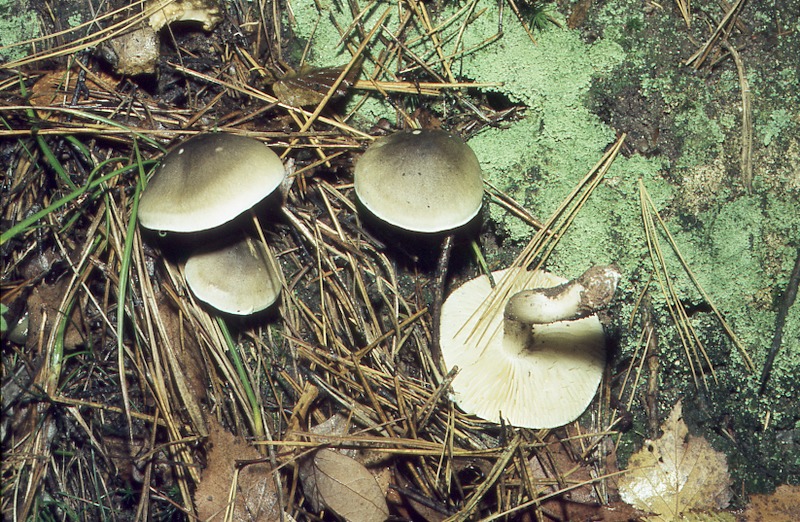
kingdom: Fungi
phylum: Basidiomycota
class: Agaricomycetes
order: Agaricales
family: Tricholomataceae
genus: Tricholoma
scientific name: Tricholoma saponaceum
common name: Soapy trich
